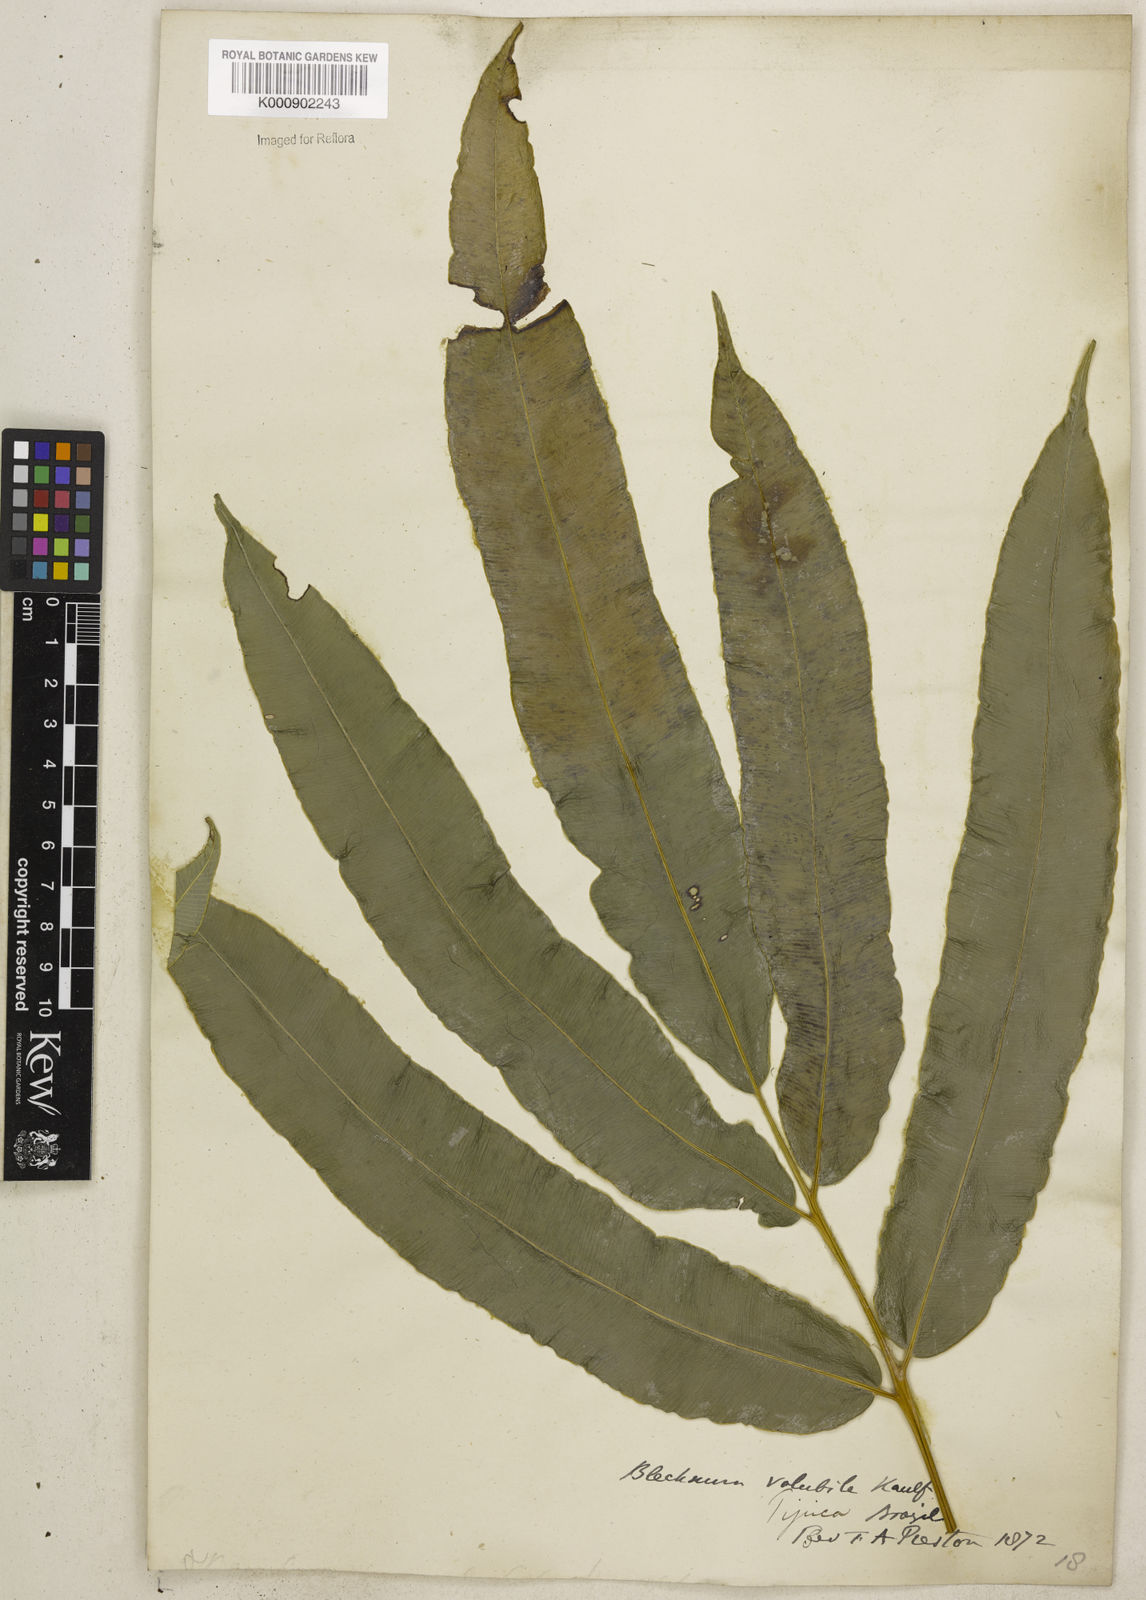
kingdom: Plantae
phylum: Tracheophyta
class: Polypodiopsida
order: Polypodiales
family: Blechnaceae
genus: Salpichlaena
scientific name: Salpichlaena volubilis
